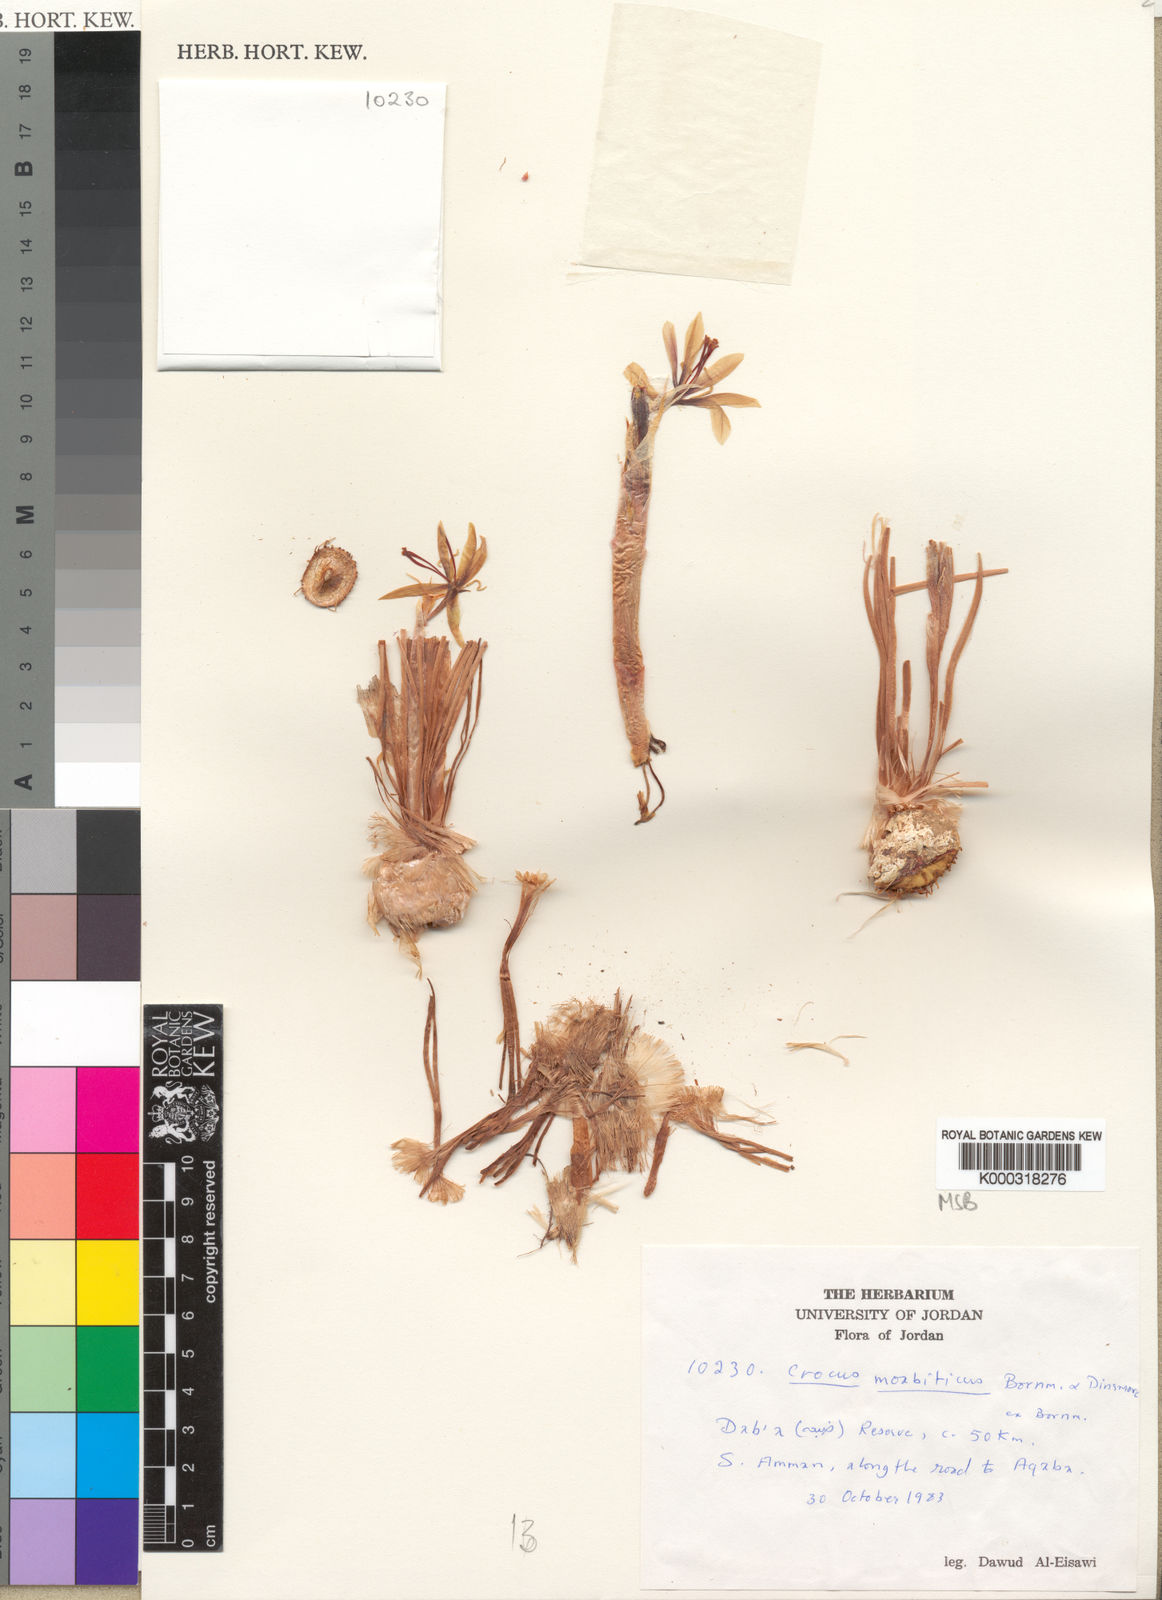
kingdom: Plantae
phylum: Tracheophyta
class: Liliopsida
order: Asparagales
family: Iridaceae
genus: Crocus
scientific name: Crocus moabiticus
